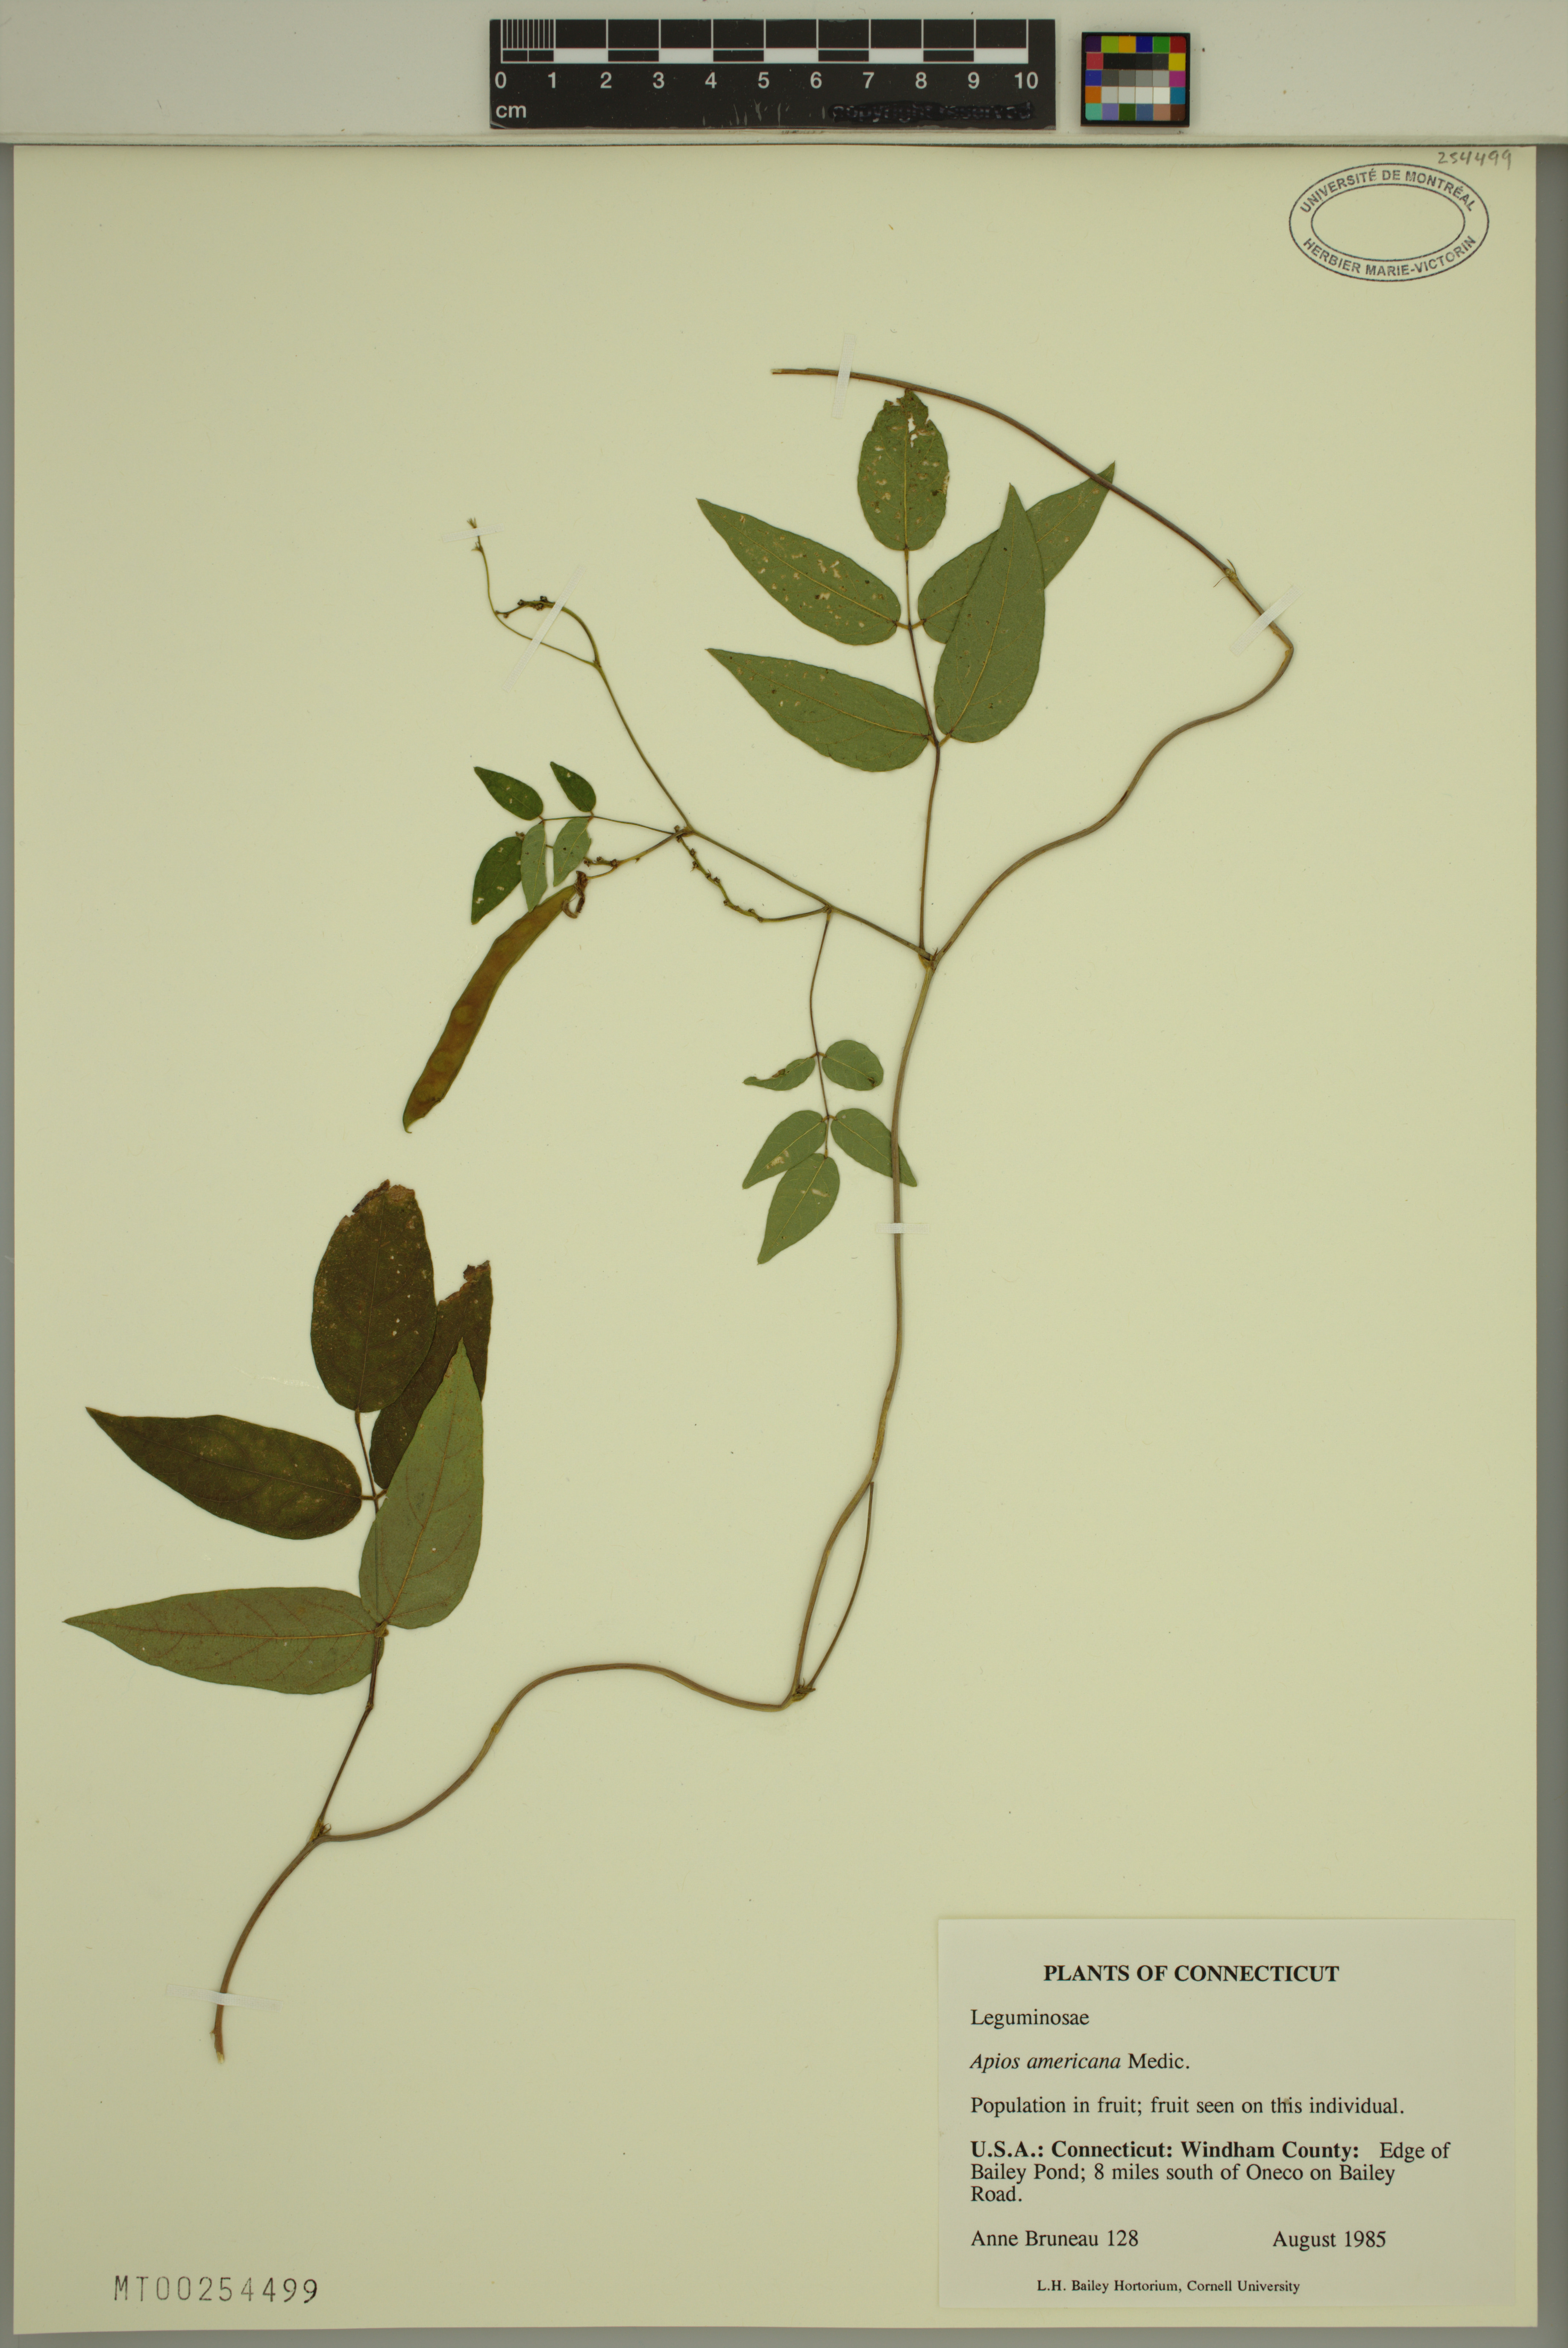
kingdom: Plantae
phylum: Tracheophyta
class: Magnoliopsida
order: Fabales
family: Fabaceae
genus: Apios
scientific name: Apios americana
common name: American potato-bean
